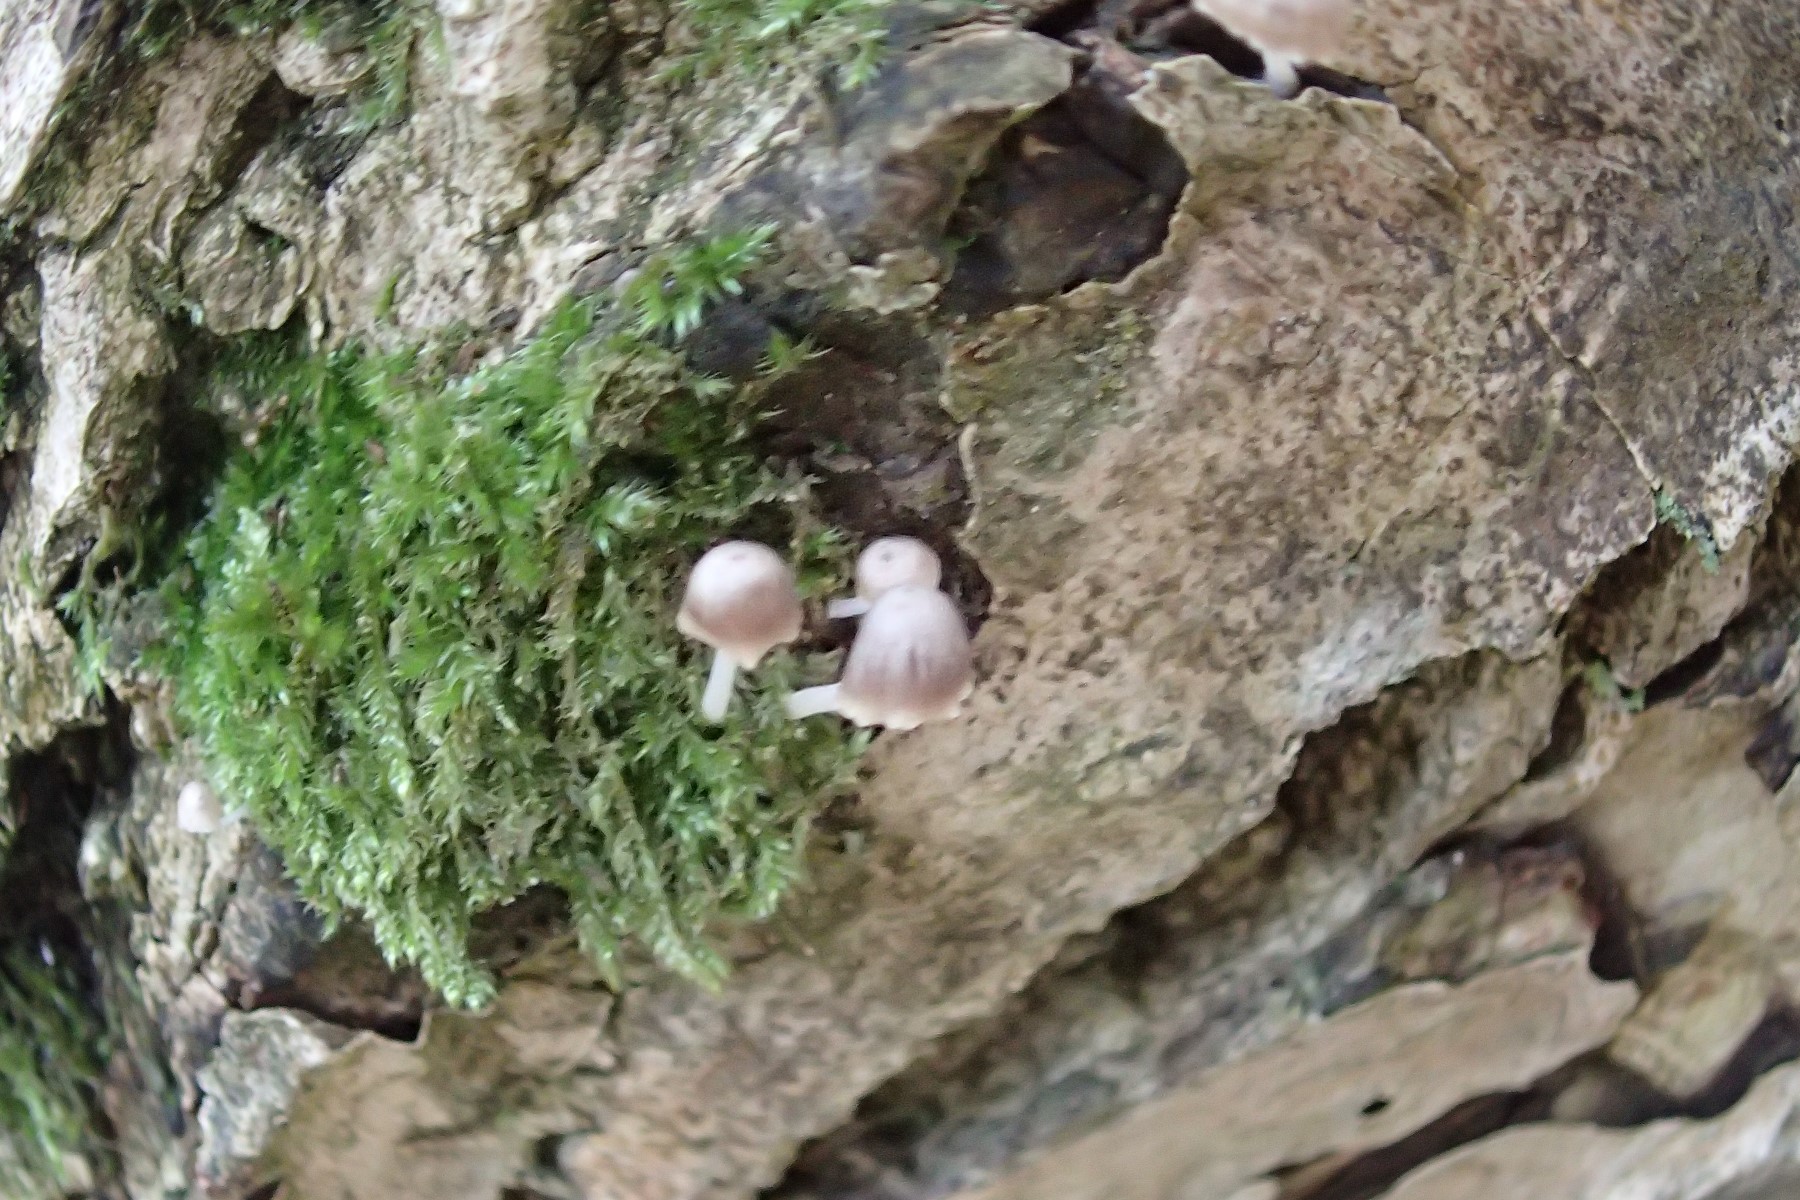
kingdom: Fungi
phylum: Basidiomycota
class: Agaricomycetes
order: Agaricales
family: Porotheleaceae
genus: Phloeomana
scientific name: Phloeomana hiemalis
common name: sen huesvamp
